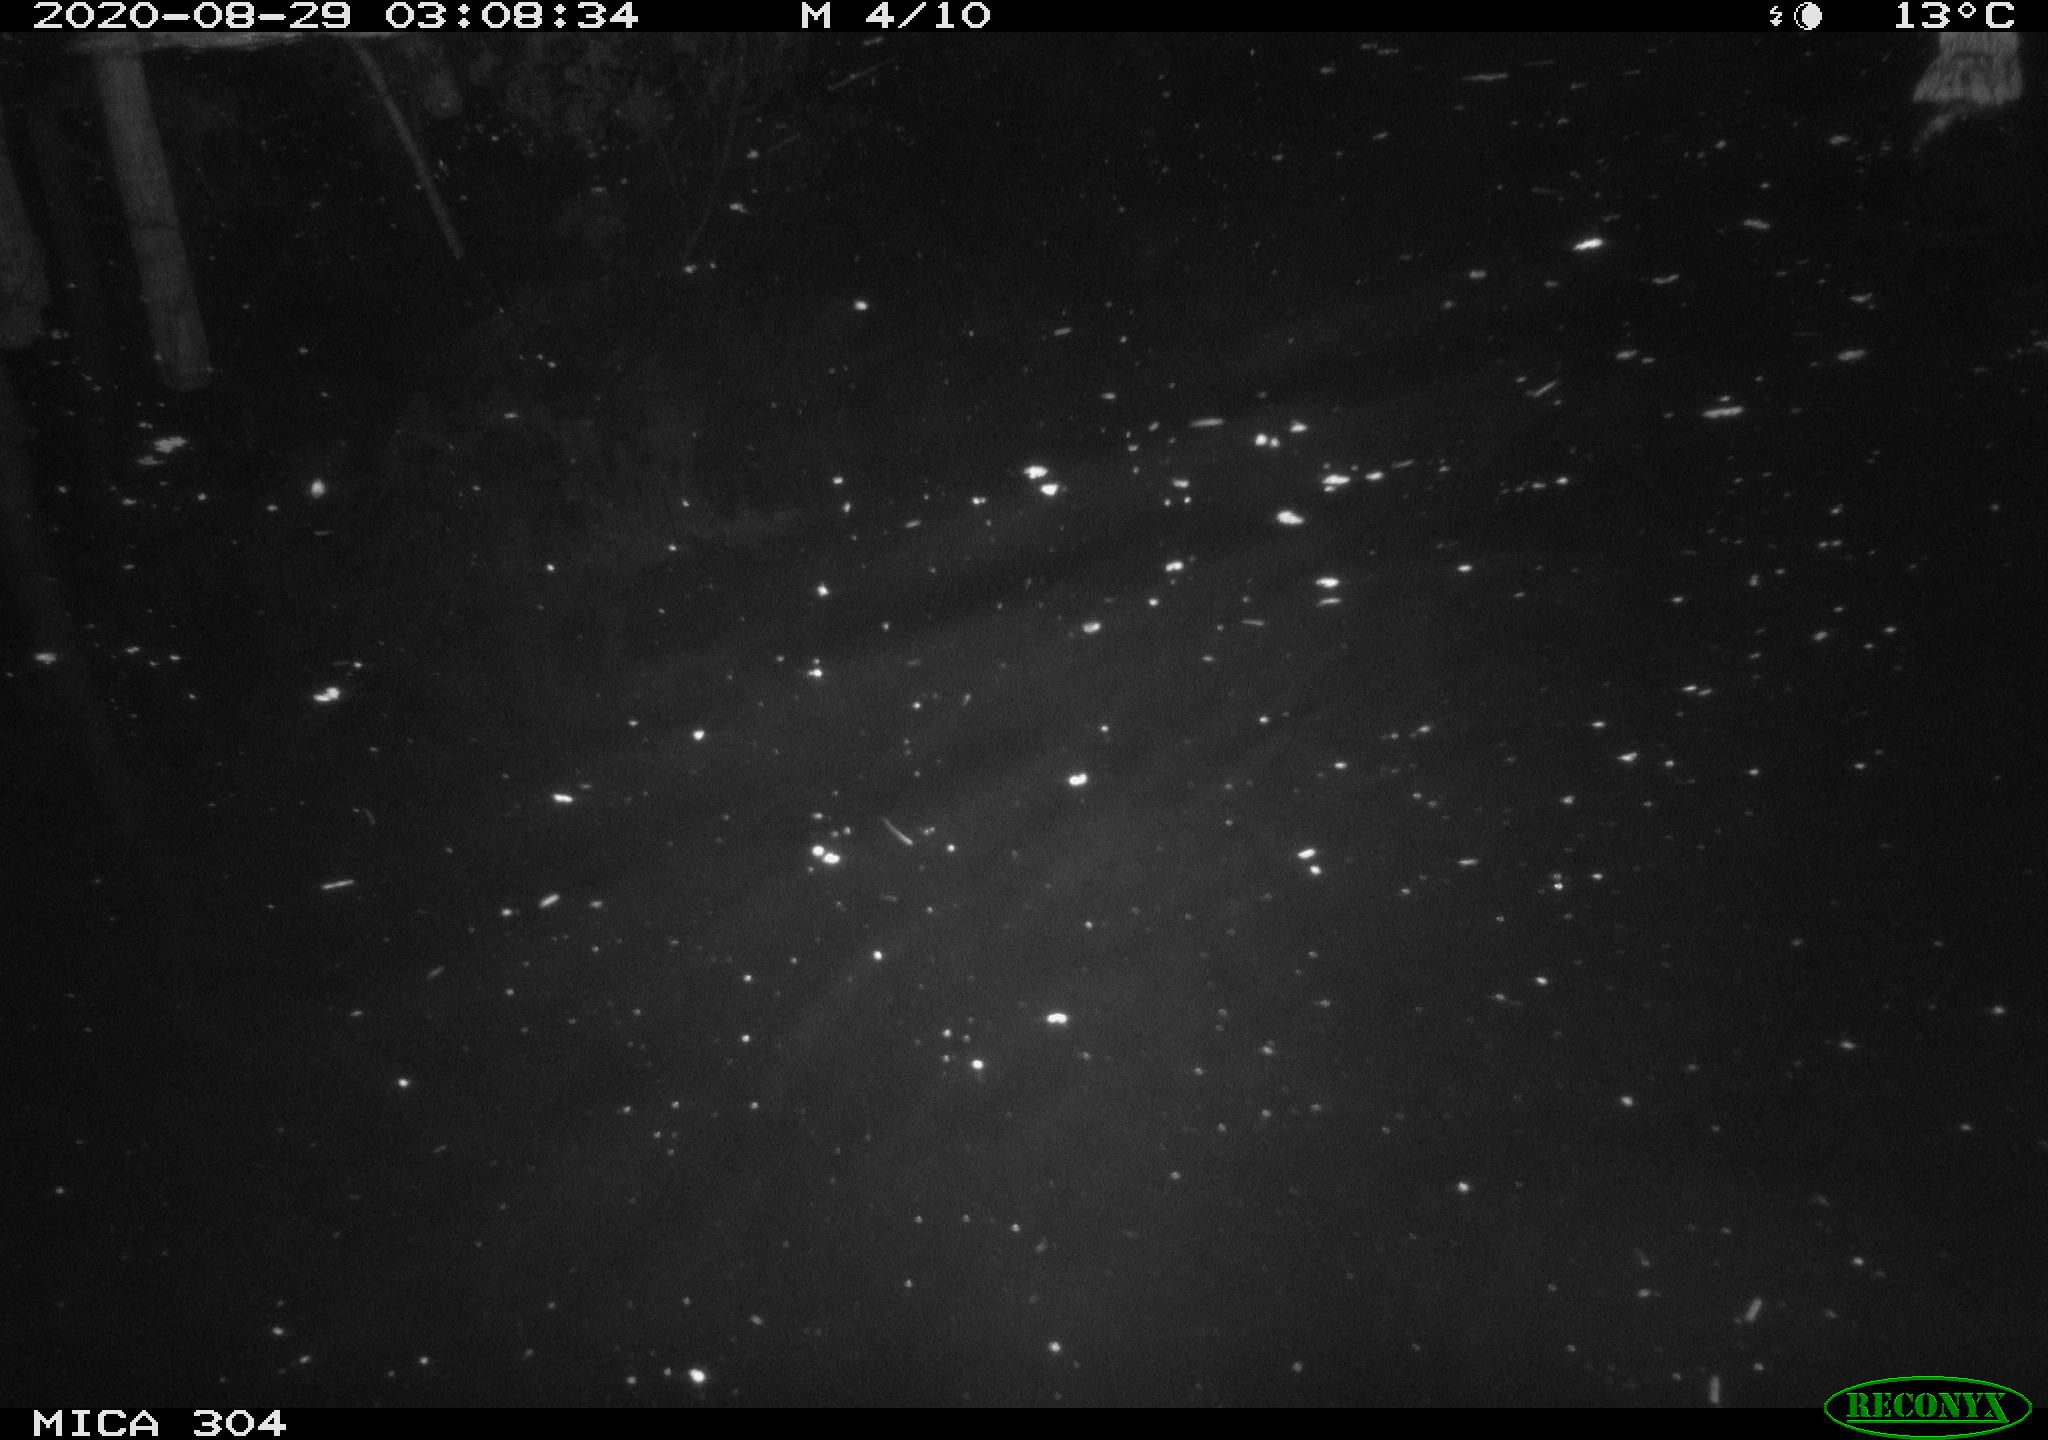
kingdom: Animalia
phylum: Chordata
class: Mammalia
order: Rodentia
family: Cricetidae
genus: Ondatra
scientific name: Ondatra zibethicus
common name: Muskrat
